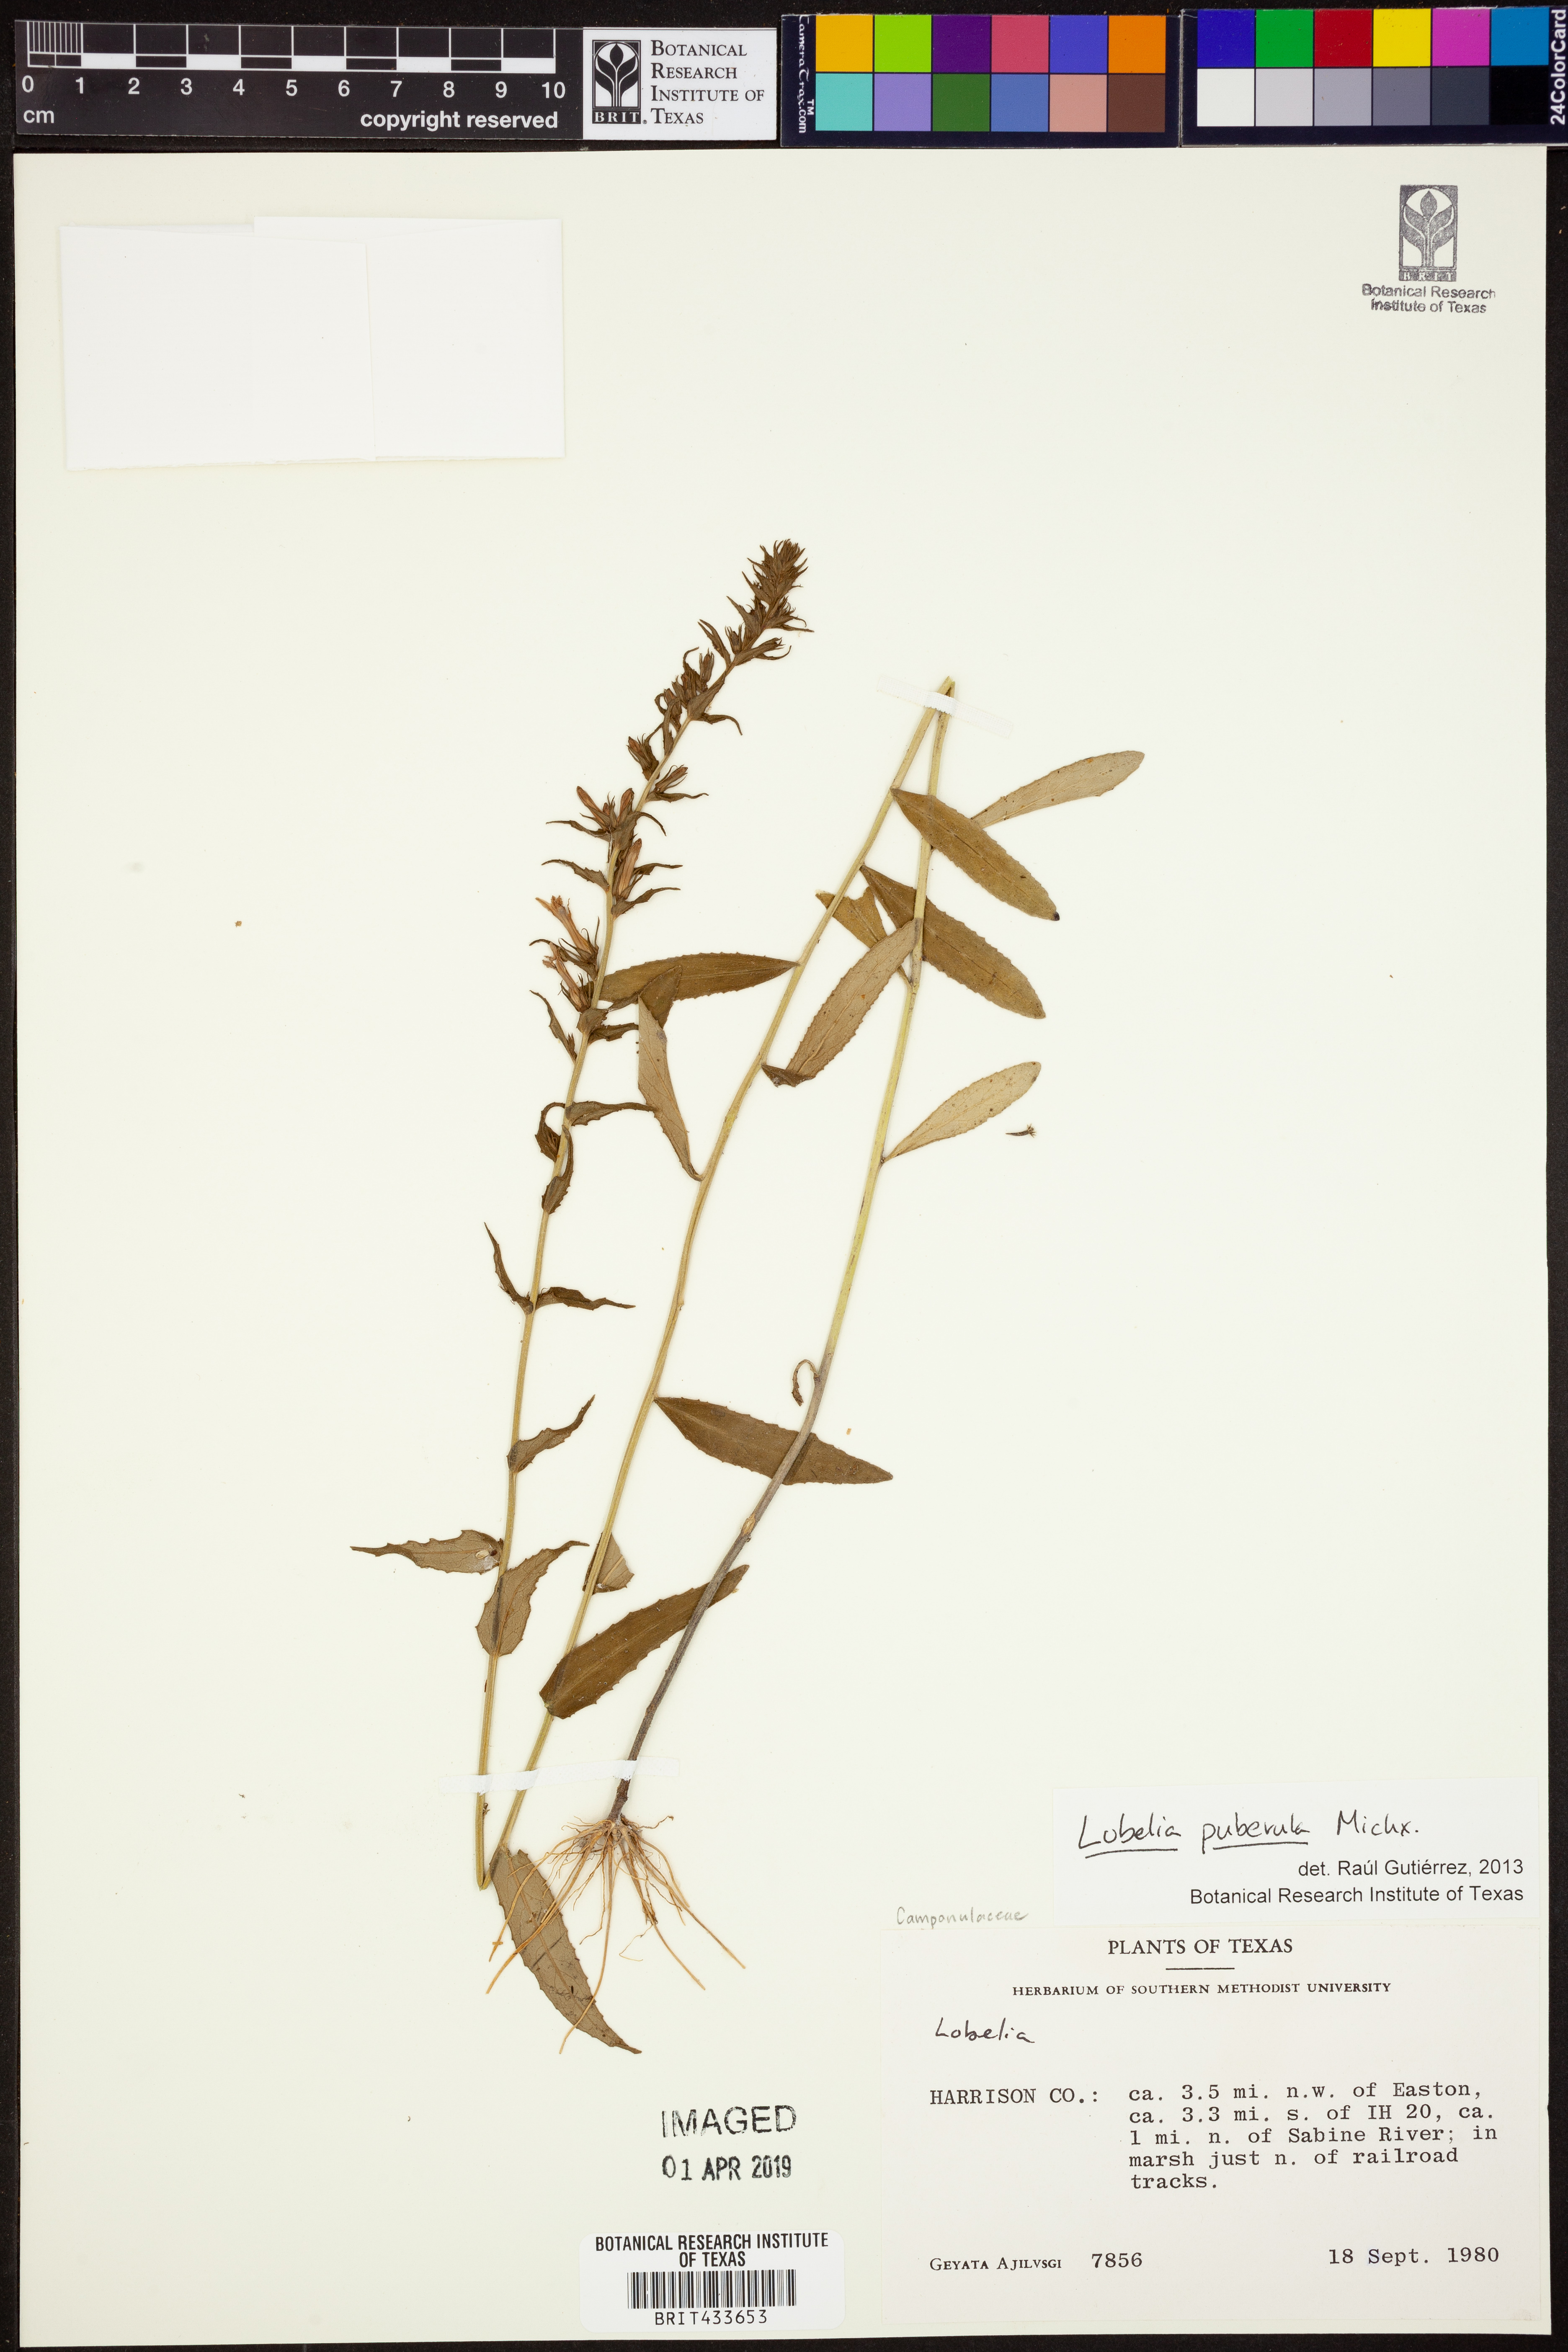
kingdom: Plantae
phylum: Tracheophyta
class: Magnoliopsida
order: Asterales
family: Campanulaceae
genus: Lobelia
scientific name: Lobelia puberula
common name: Purple dewdrop
